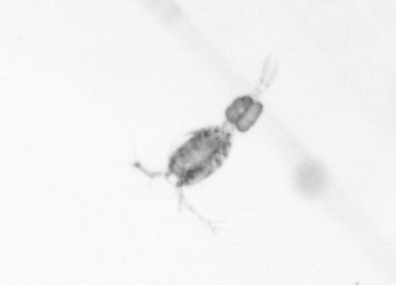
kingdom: Animalia
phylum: Arthropoda
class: Copepoda
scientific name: Copepoda
